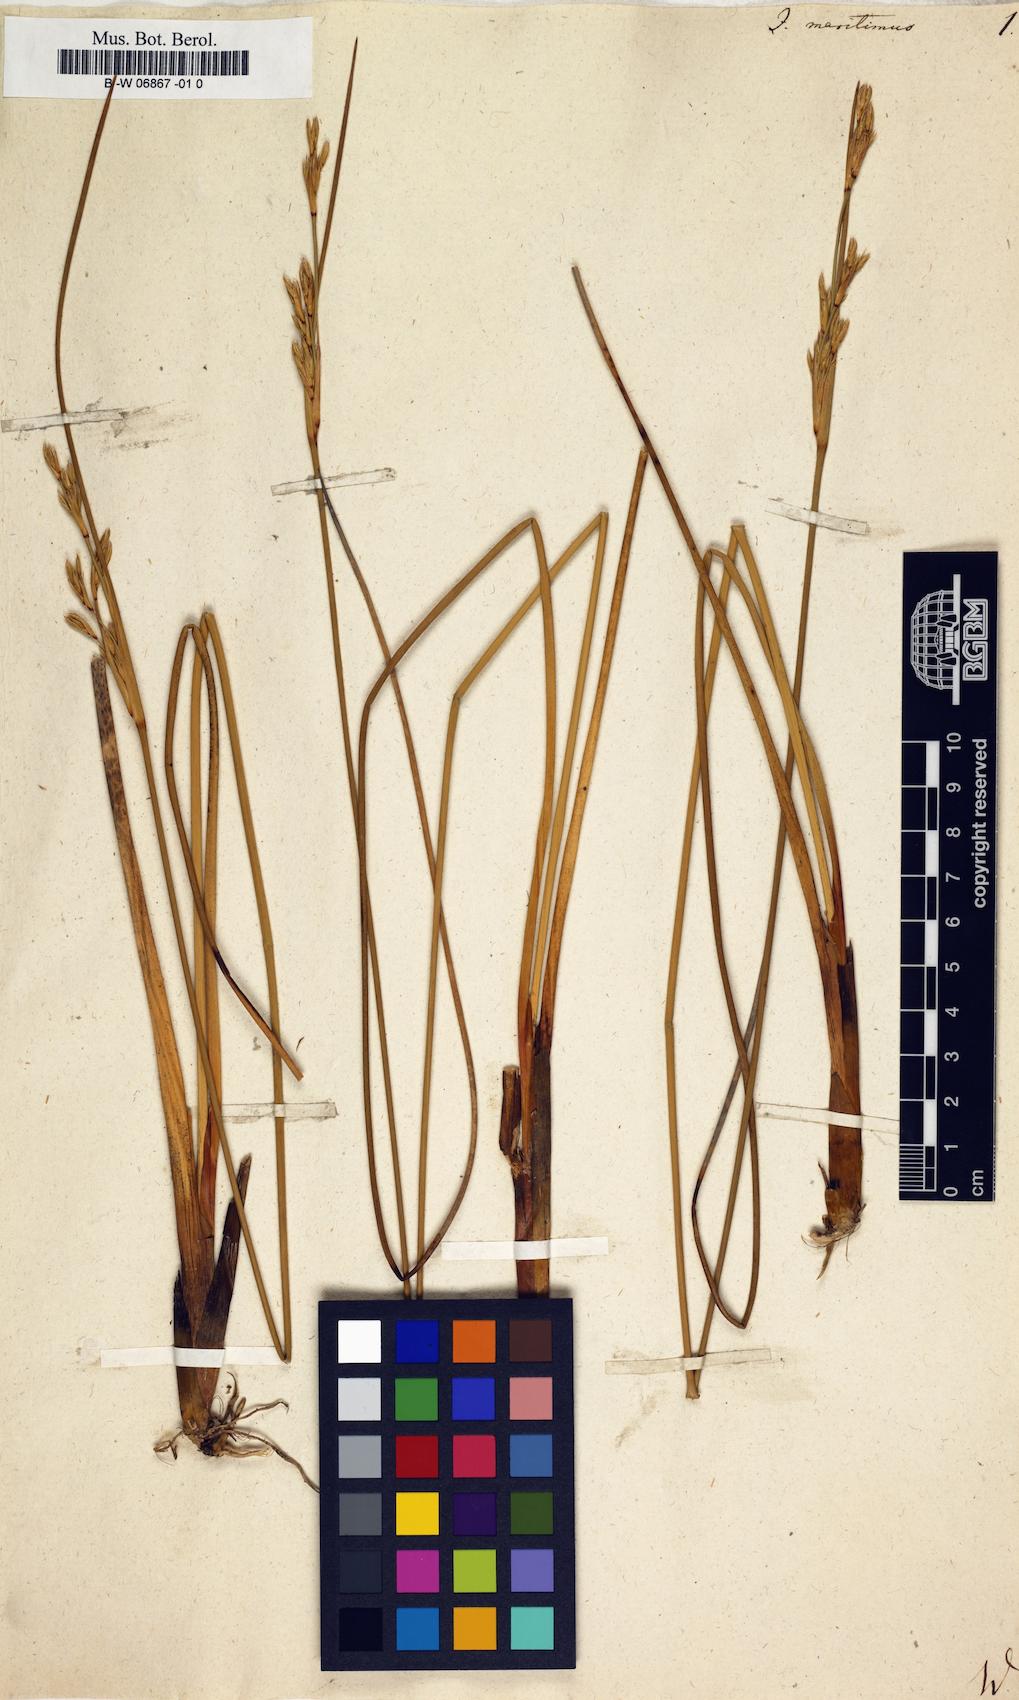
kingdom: Plantae
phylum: Tracheophyta
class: Liliopsida
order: Poales
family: Juncaceae
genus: Juncus
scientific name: Juncus maritimus
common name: Sea rush
